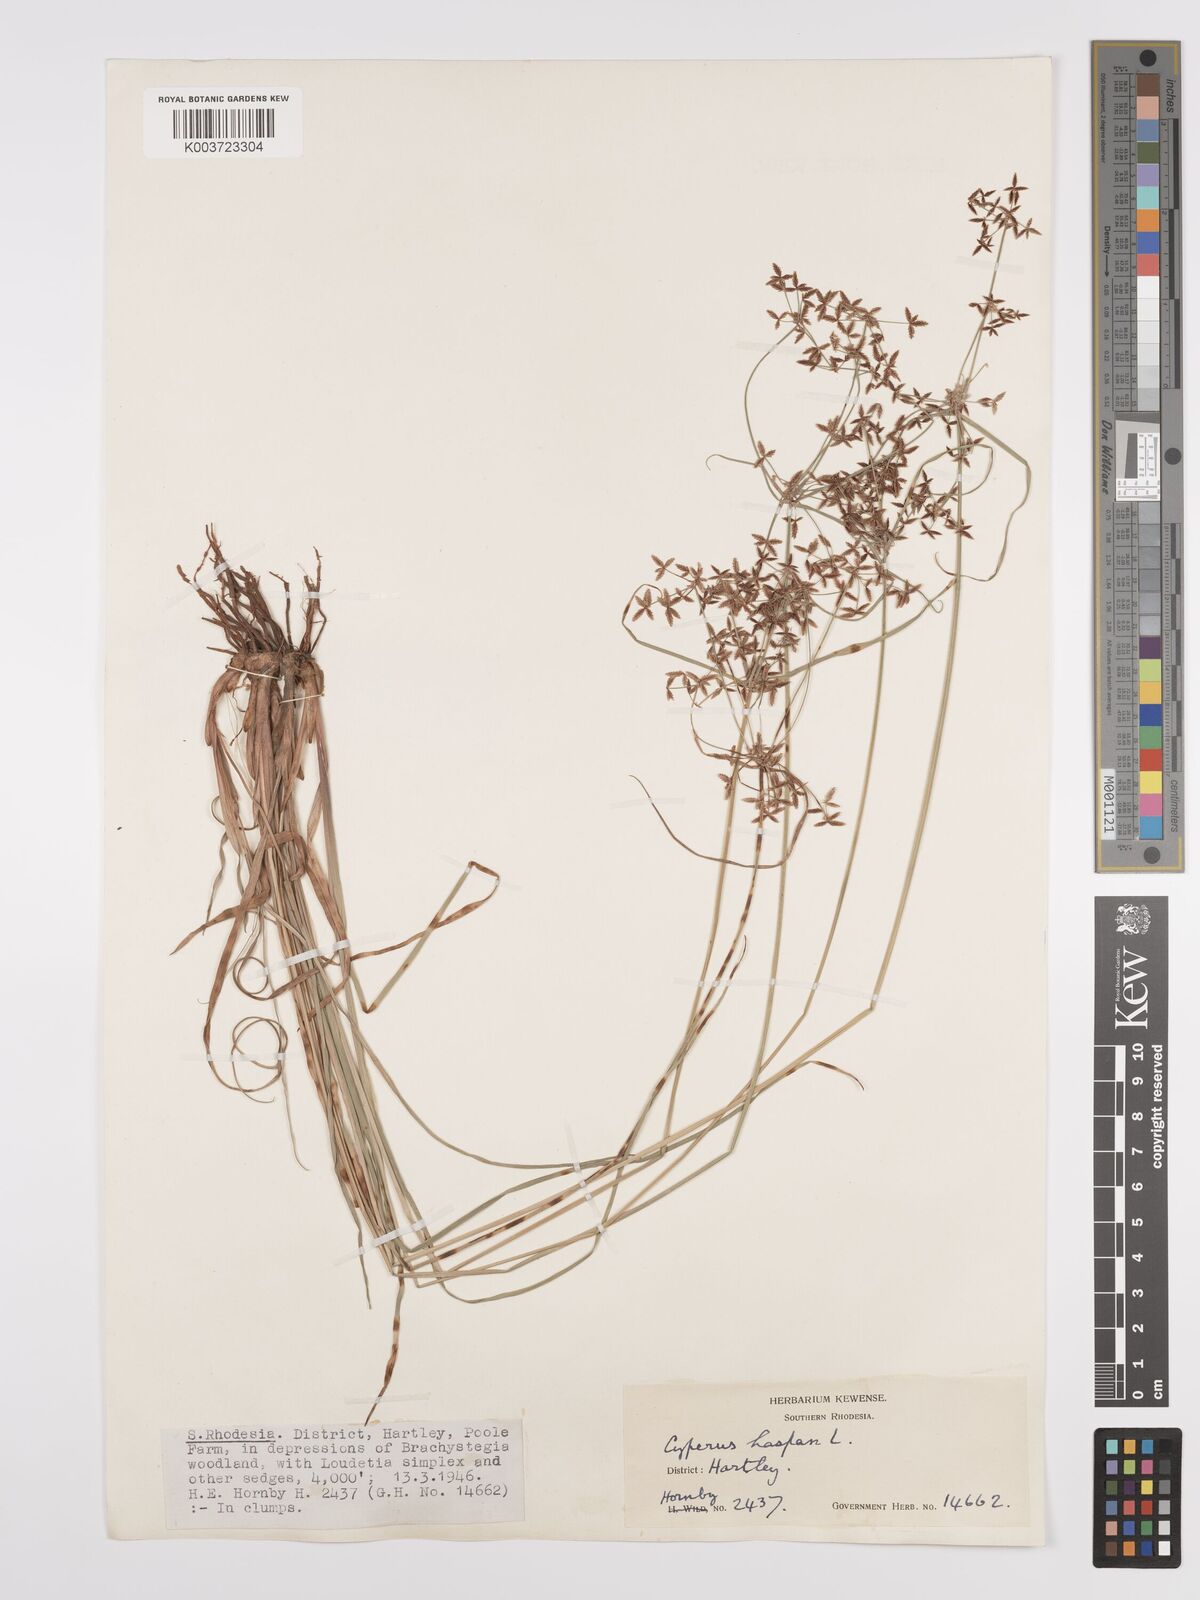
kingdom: Plantae
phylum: Tracheophyta
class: Liliopsida
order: Poales
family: Cyperaceae
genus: Cyperus
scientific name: Cyperus denudatus
